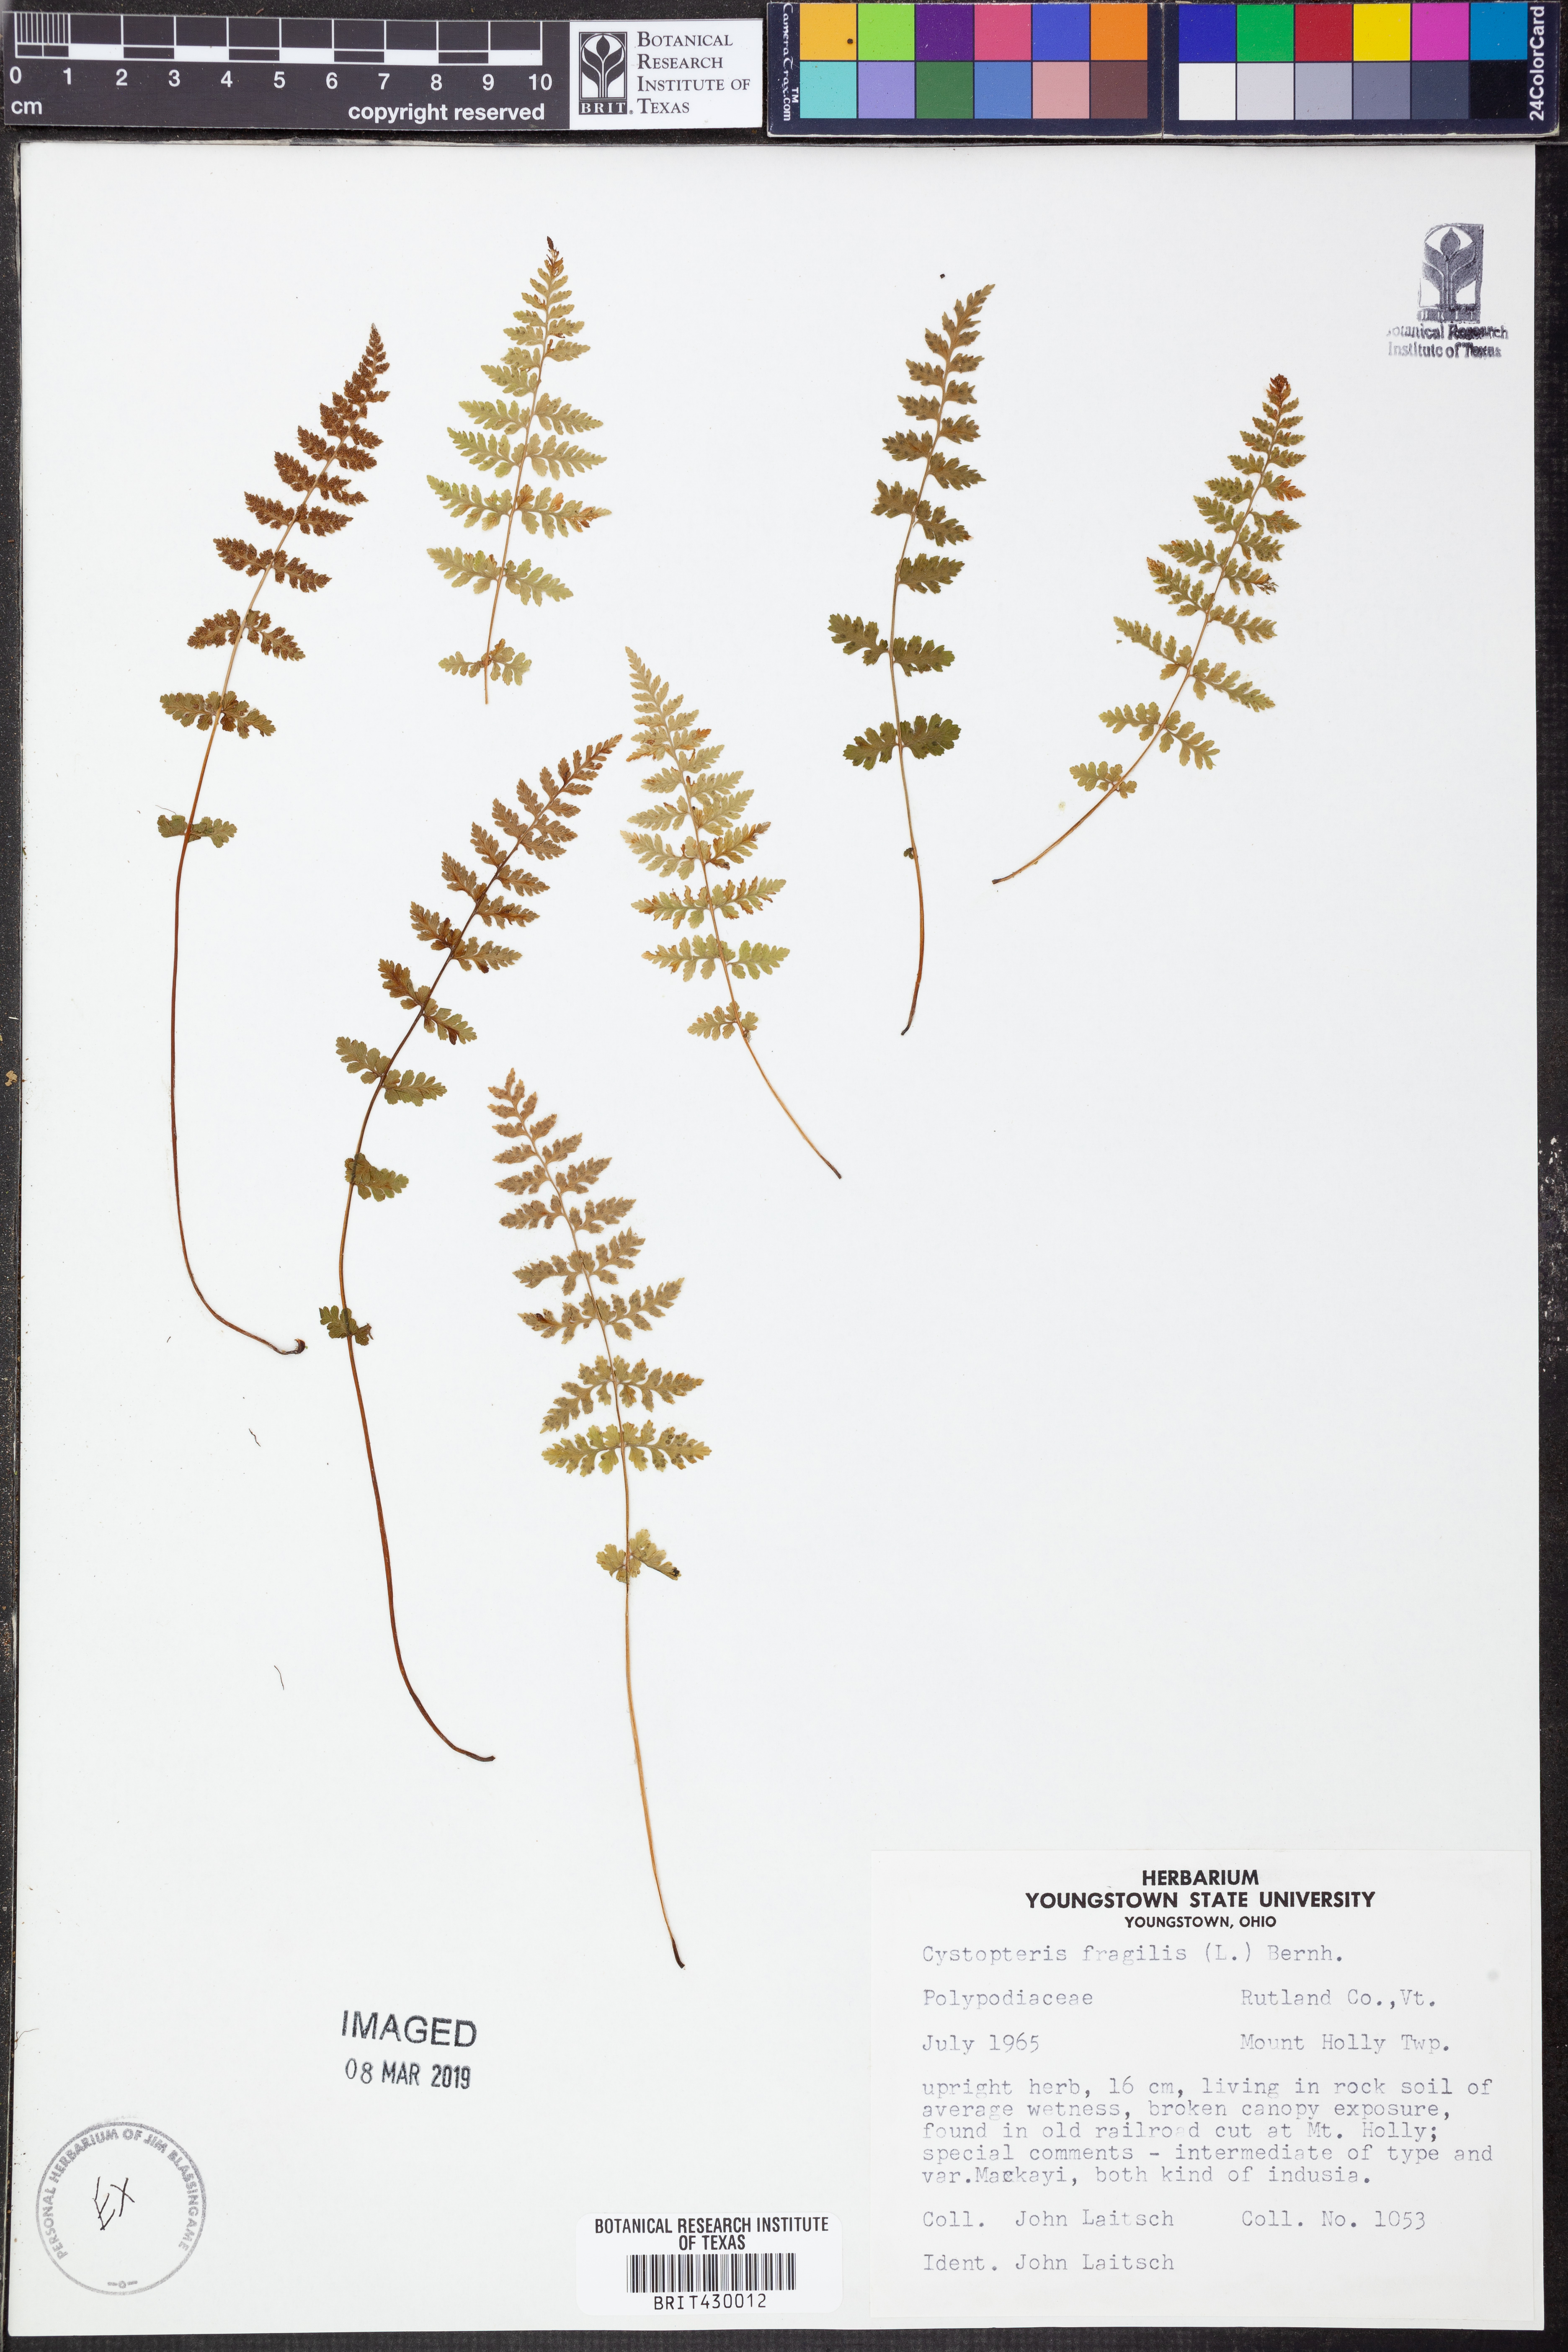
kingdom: Plantae
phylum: Tracheophyta
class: Polypodiopsida
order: Polypodiales
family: Cystopteridaceae
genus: Cystopteris
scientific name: Cystopteris fragilis
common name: Brittle bladder fern
